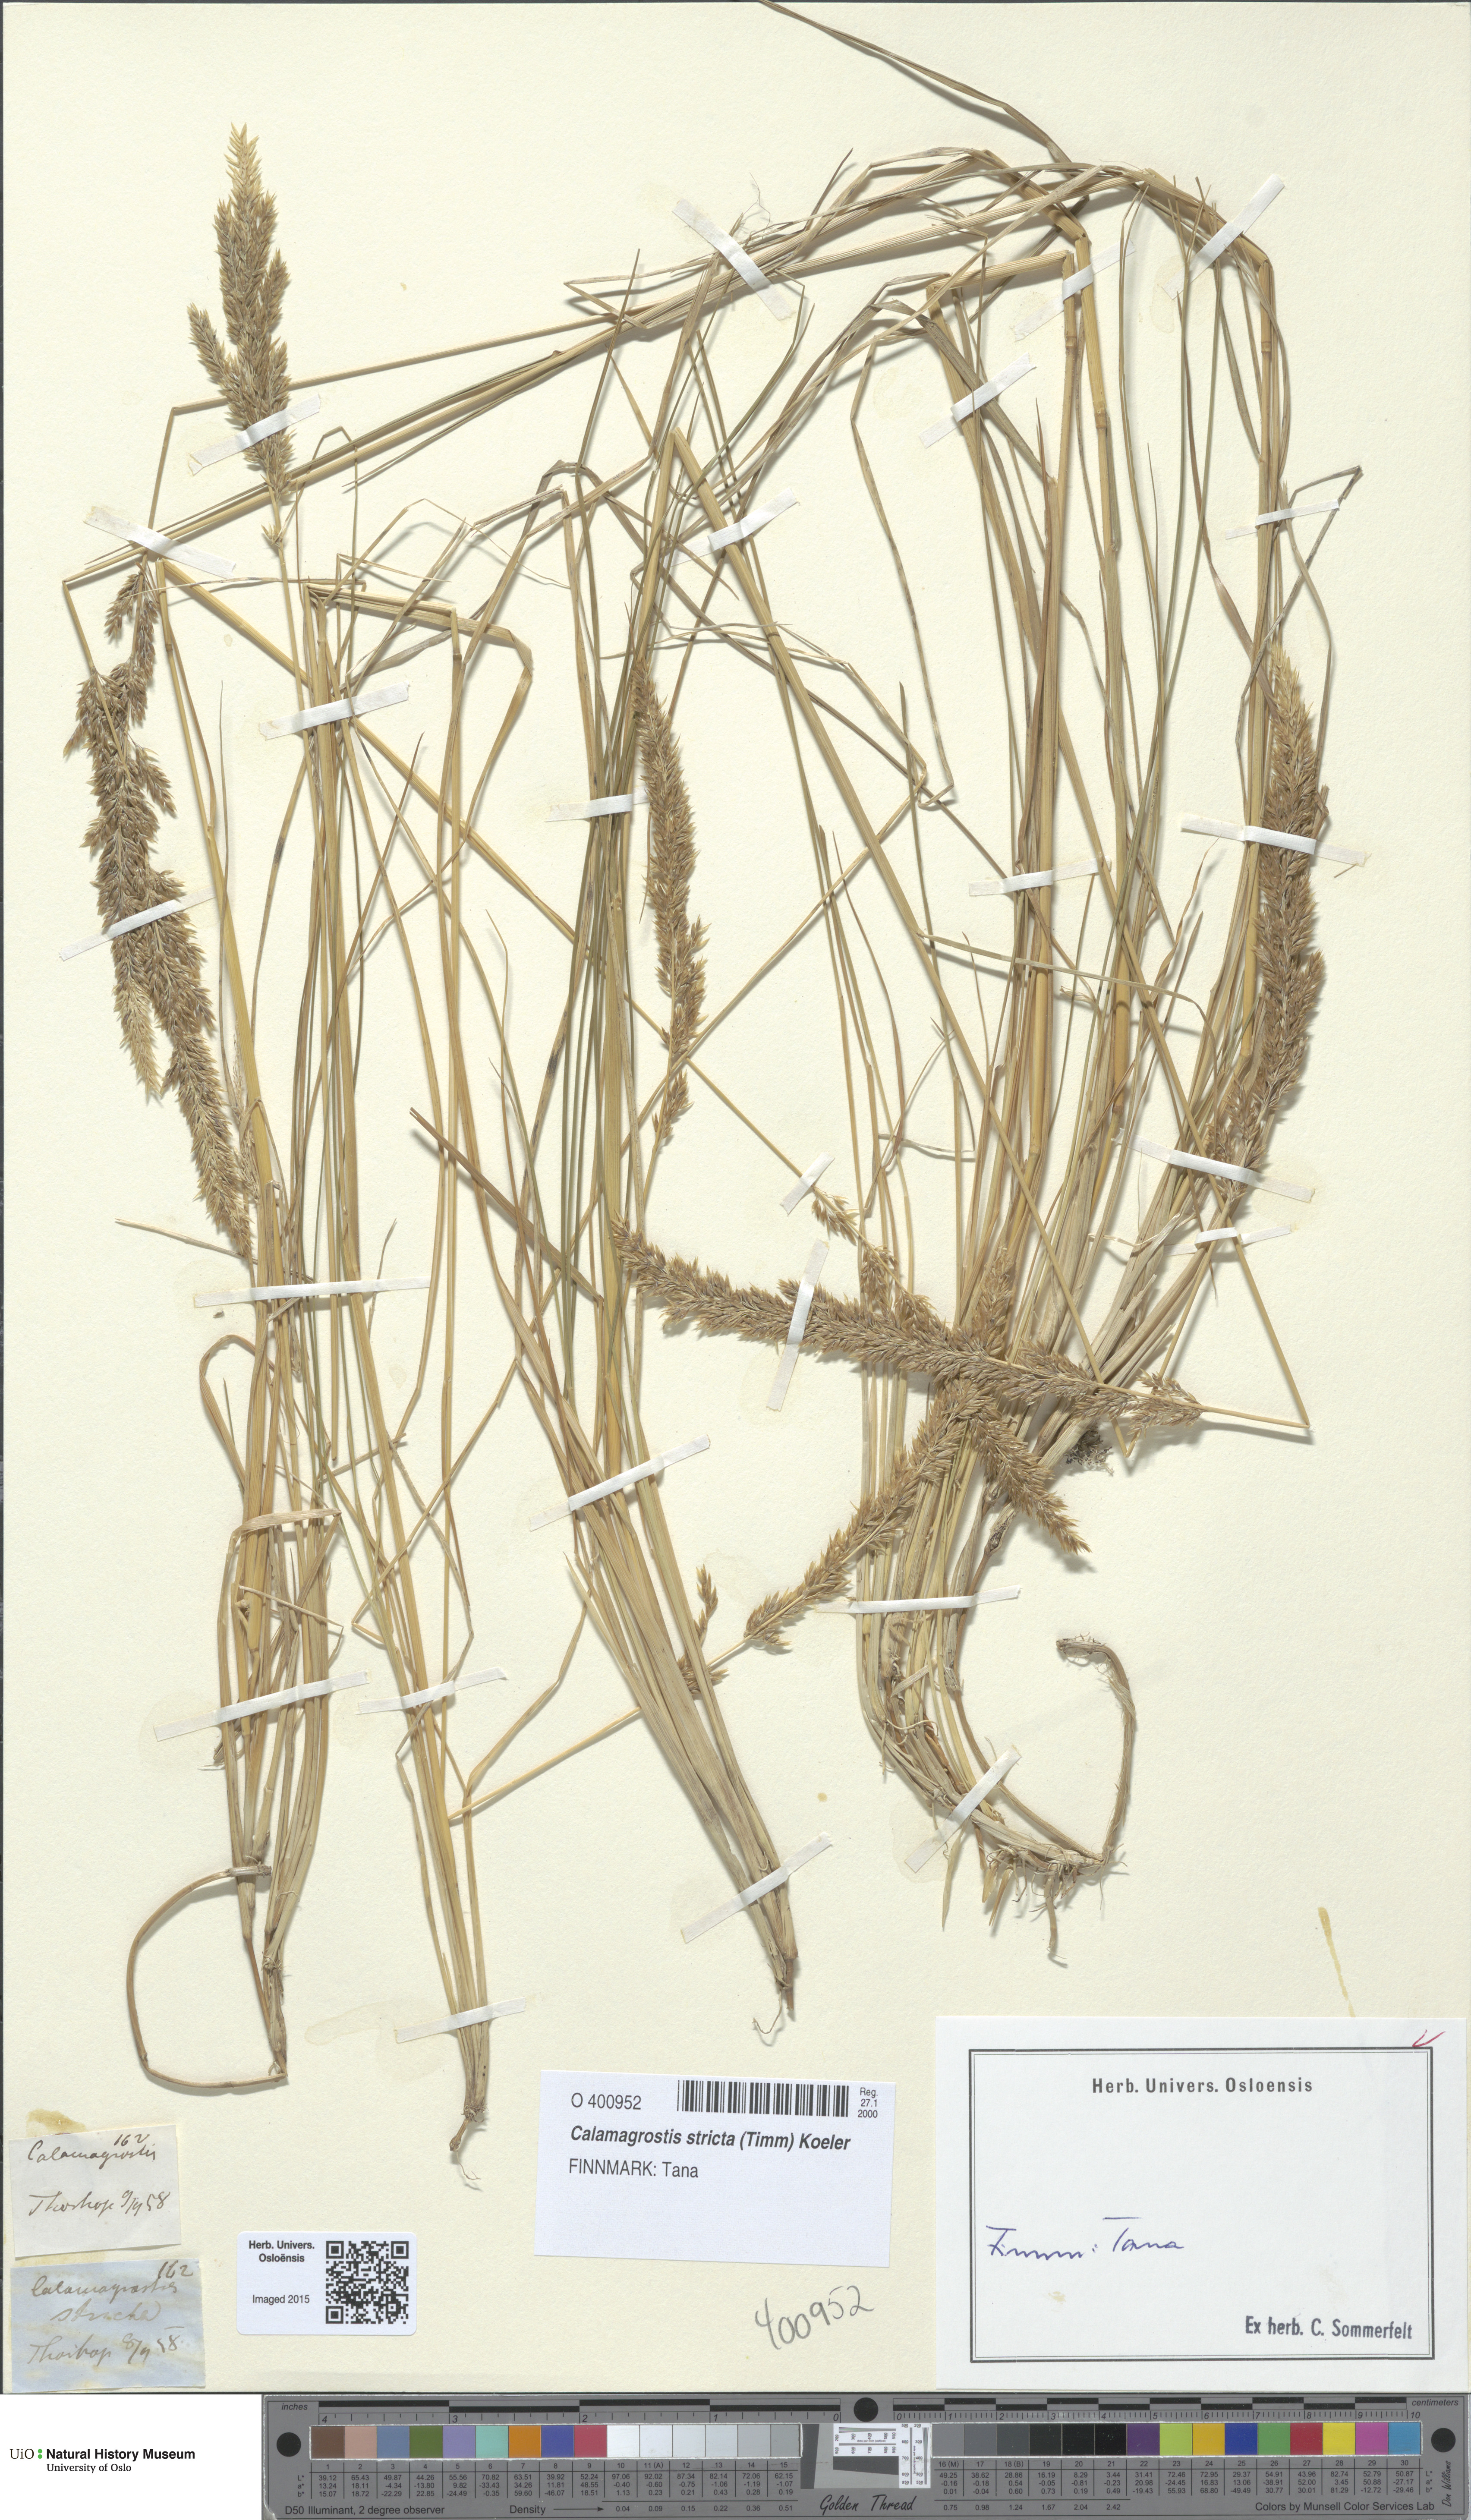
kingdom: Plantae
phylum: Tracheophyta
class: Liliopsida
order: Poales
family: Poaceae
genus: Achnatherum
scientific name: Achnatherum calamagrostis
